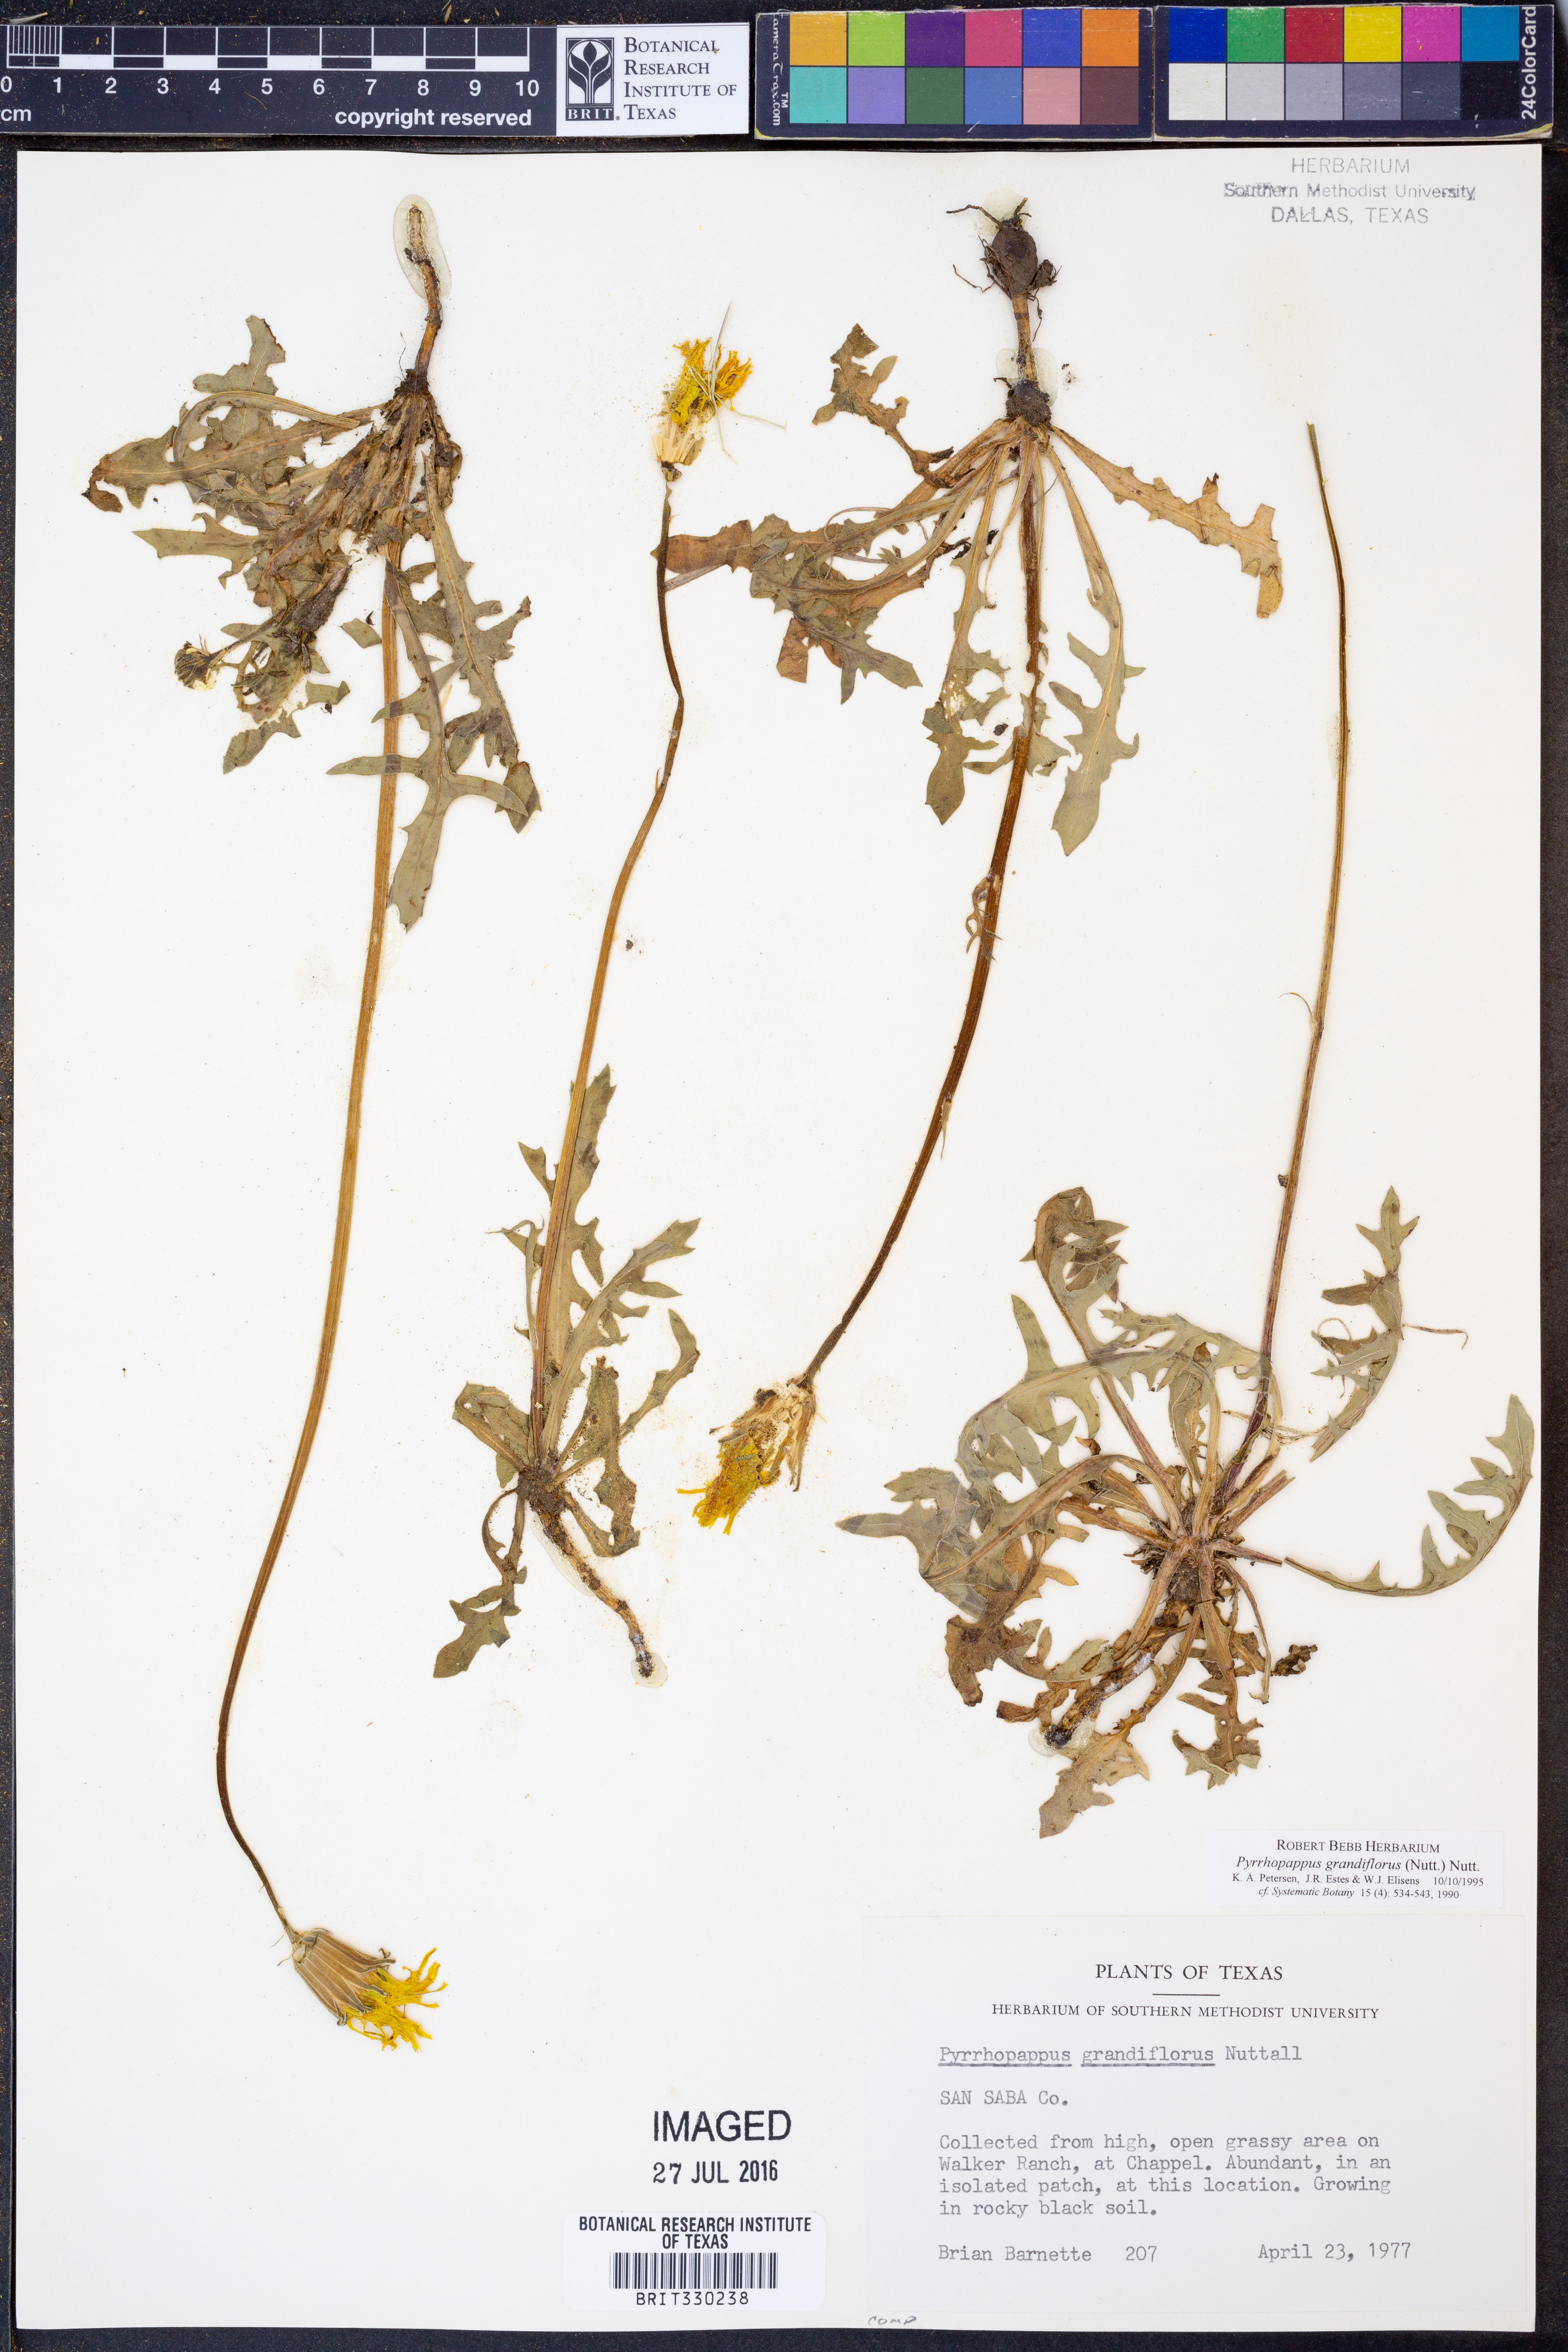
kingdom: Plantae
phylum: Tracheophyta
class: Magnoliopsida
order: Asterales
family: Asteraceae
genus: Pyrrhopappus
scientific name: Pyrrhopappus grandiflorus
